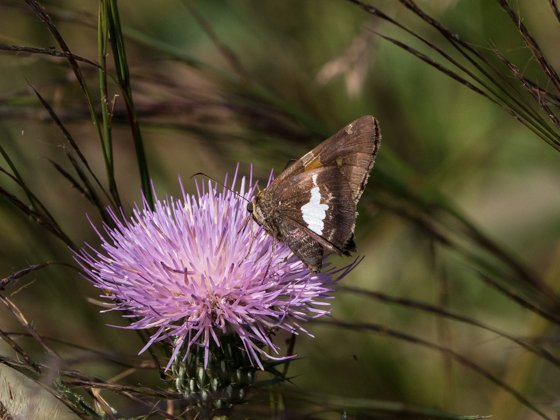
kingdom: Animalia
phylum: Arthropoda
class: Insecta
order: Lepidoptera
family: Hesperiidae
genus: Epargyreus
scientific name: Epargyreus clarus
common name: Silver-spotted Skipper
